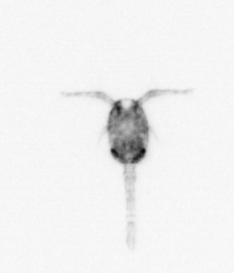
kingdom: Animalia
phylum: Arthropoda
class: Copepoda
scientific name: Copepoda
